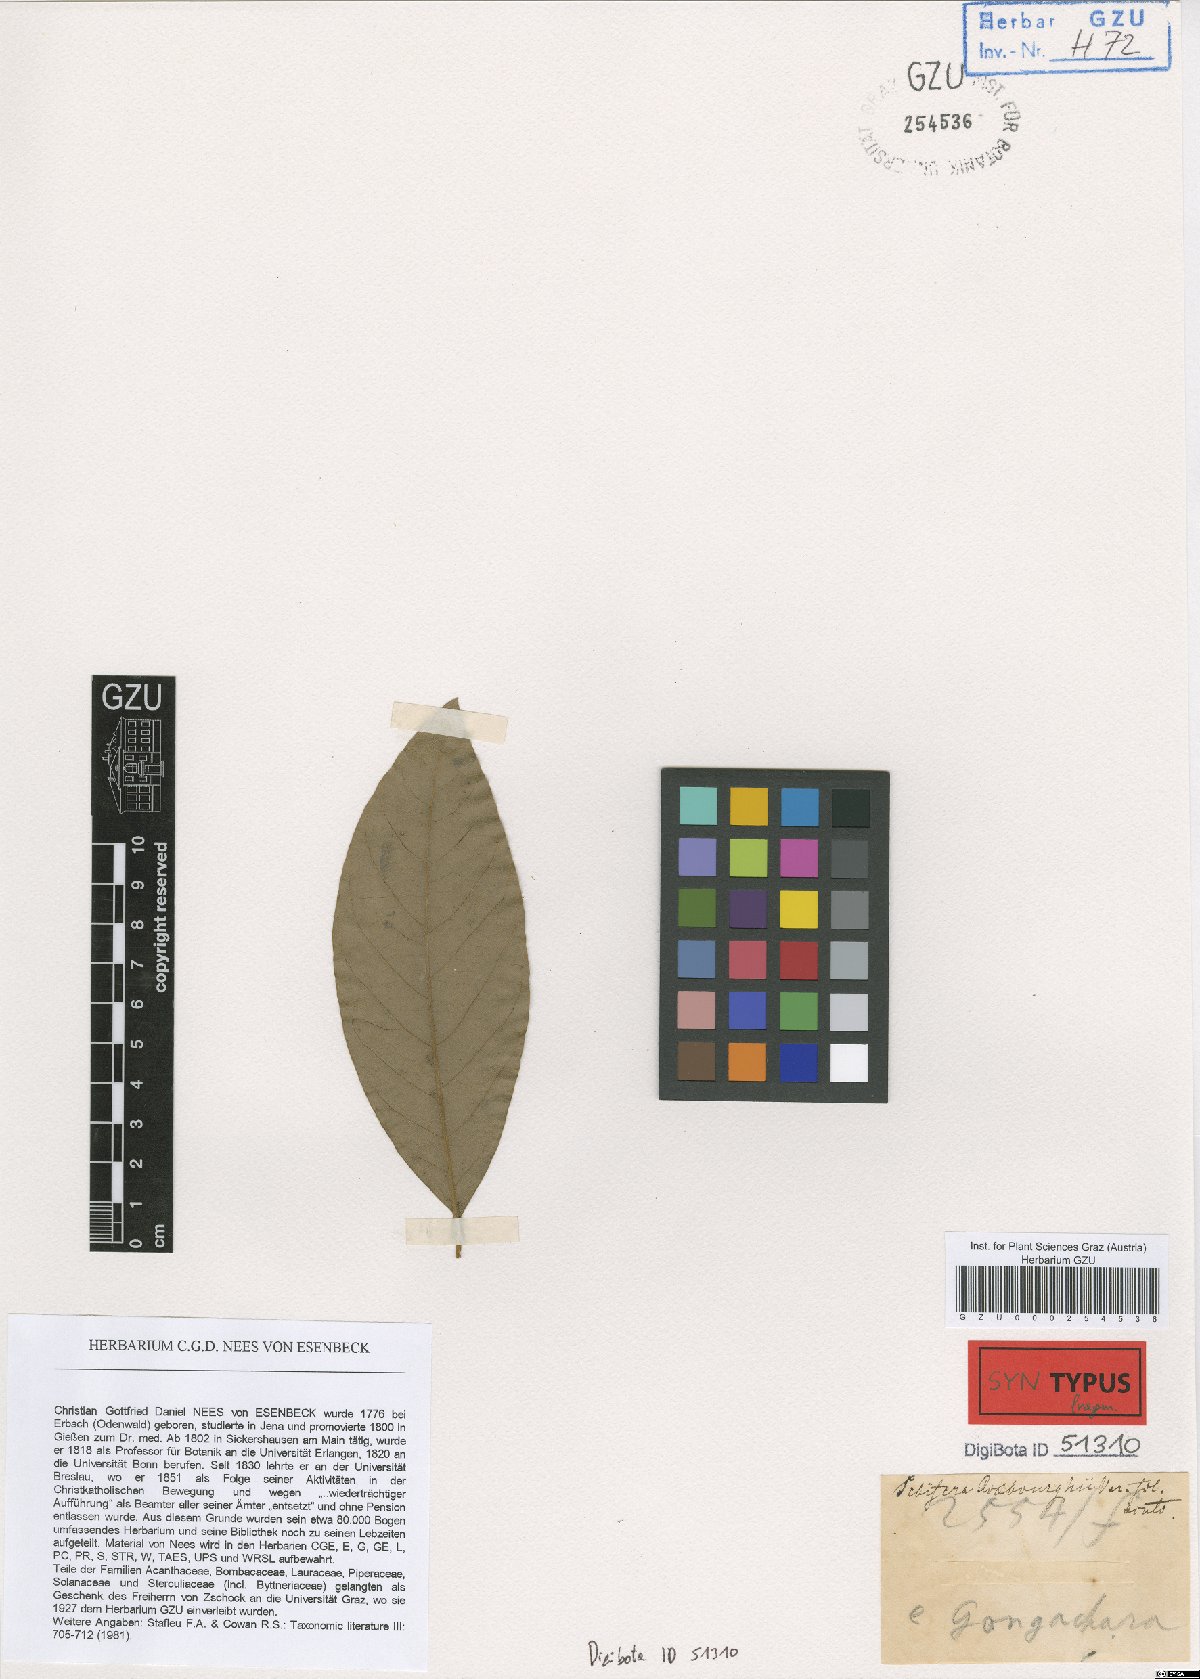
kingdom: Plantae
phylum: Tracheophyta
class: Magnoliopsida
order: Laurales
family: Lauraceae
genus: Litsea
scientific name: Litsea glutinosa
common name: Indian-laurel
